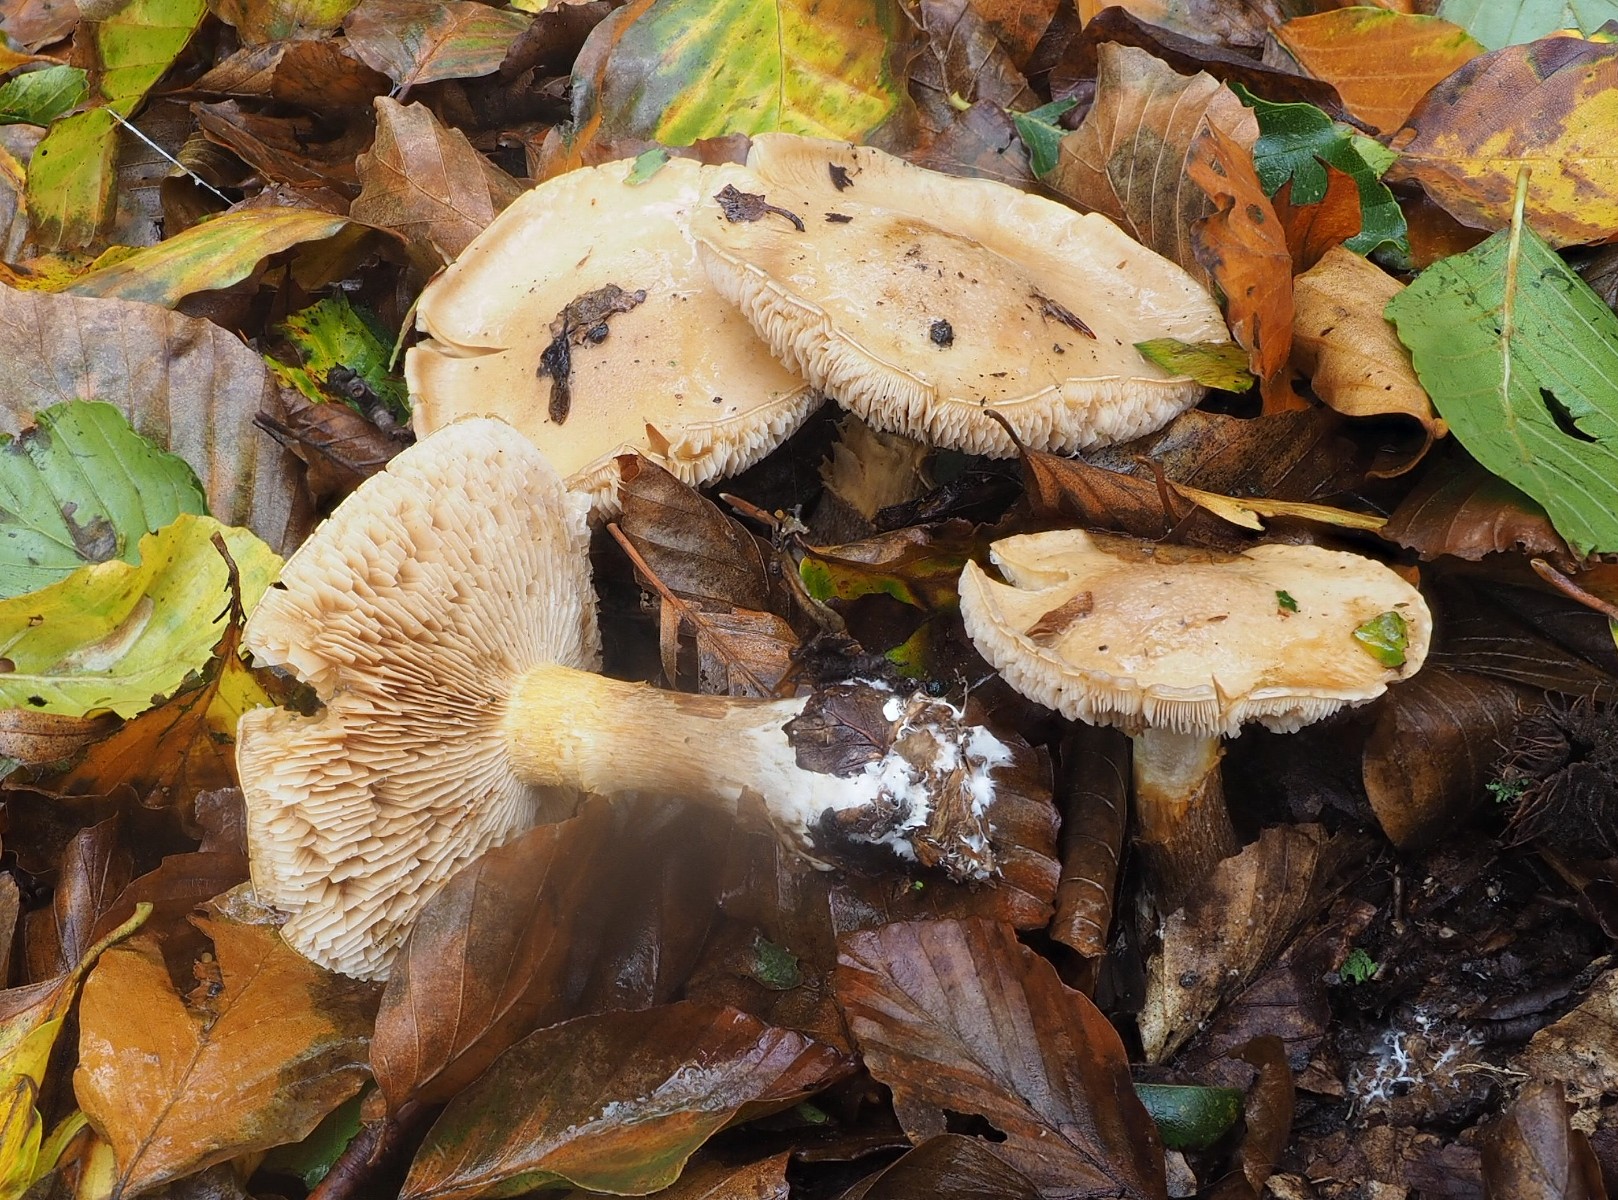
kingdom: Fungi
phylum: Basidiomycota
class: Agaricomycetes
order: Agaricales
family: Cortinariaceae
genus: Thaxterogaster
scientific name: Thaxterogaster
